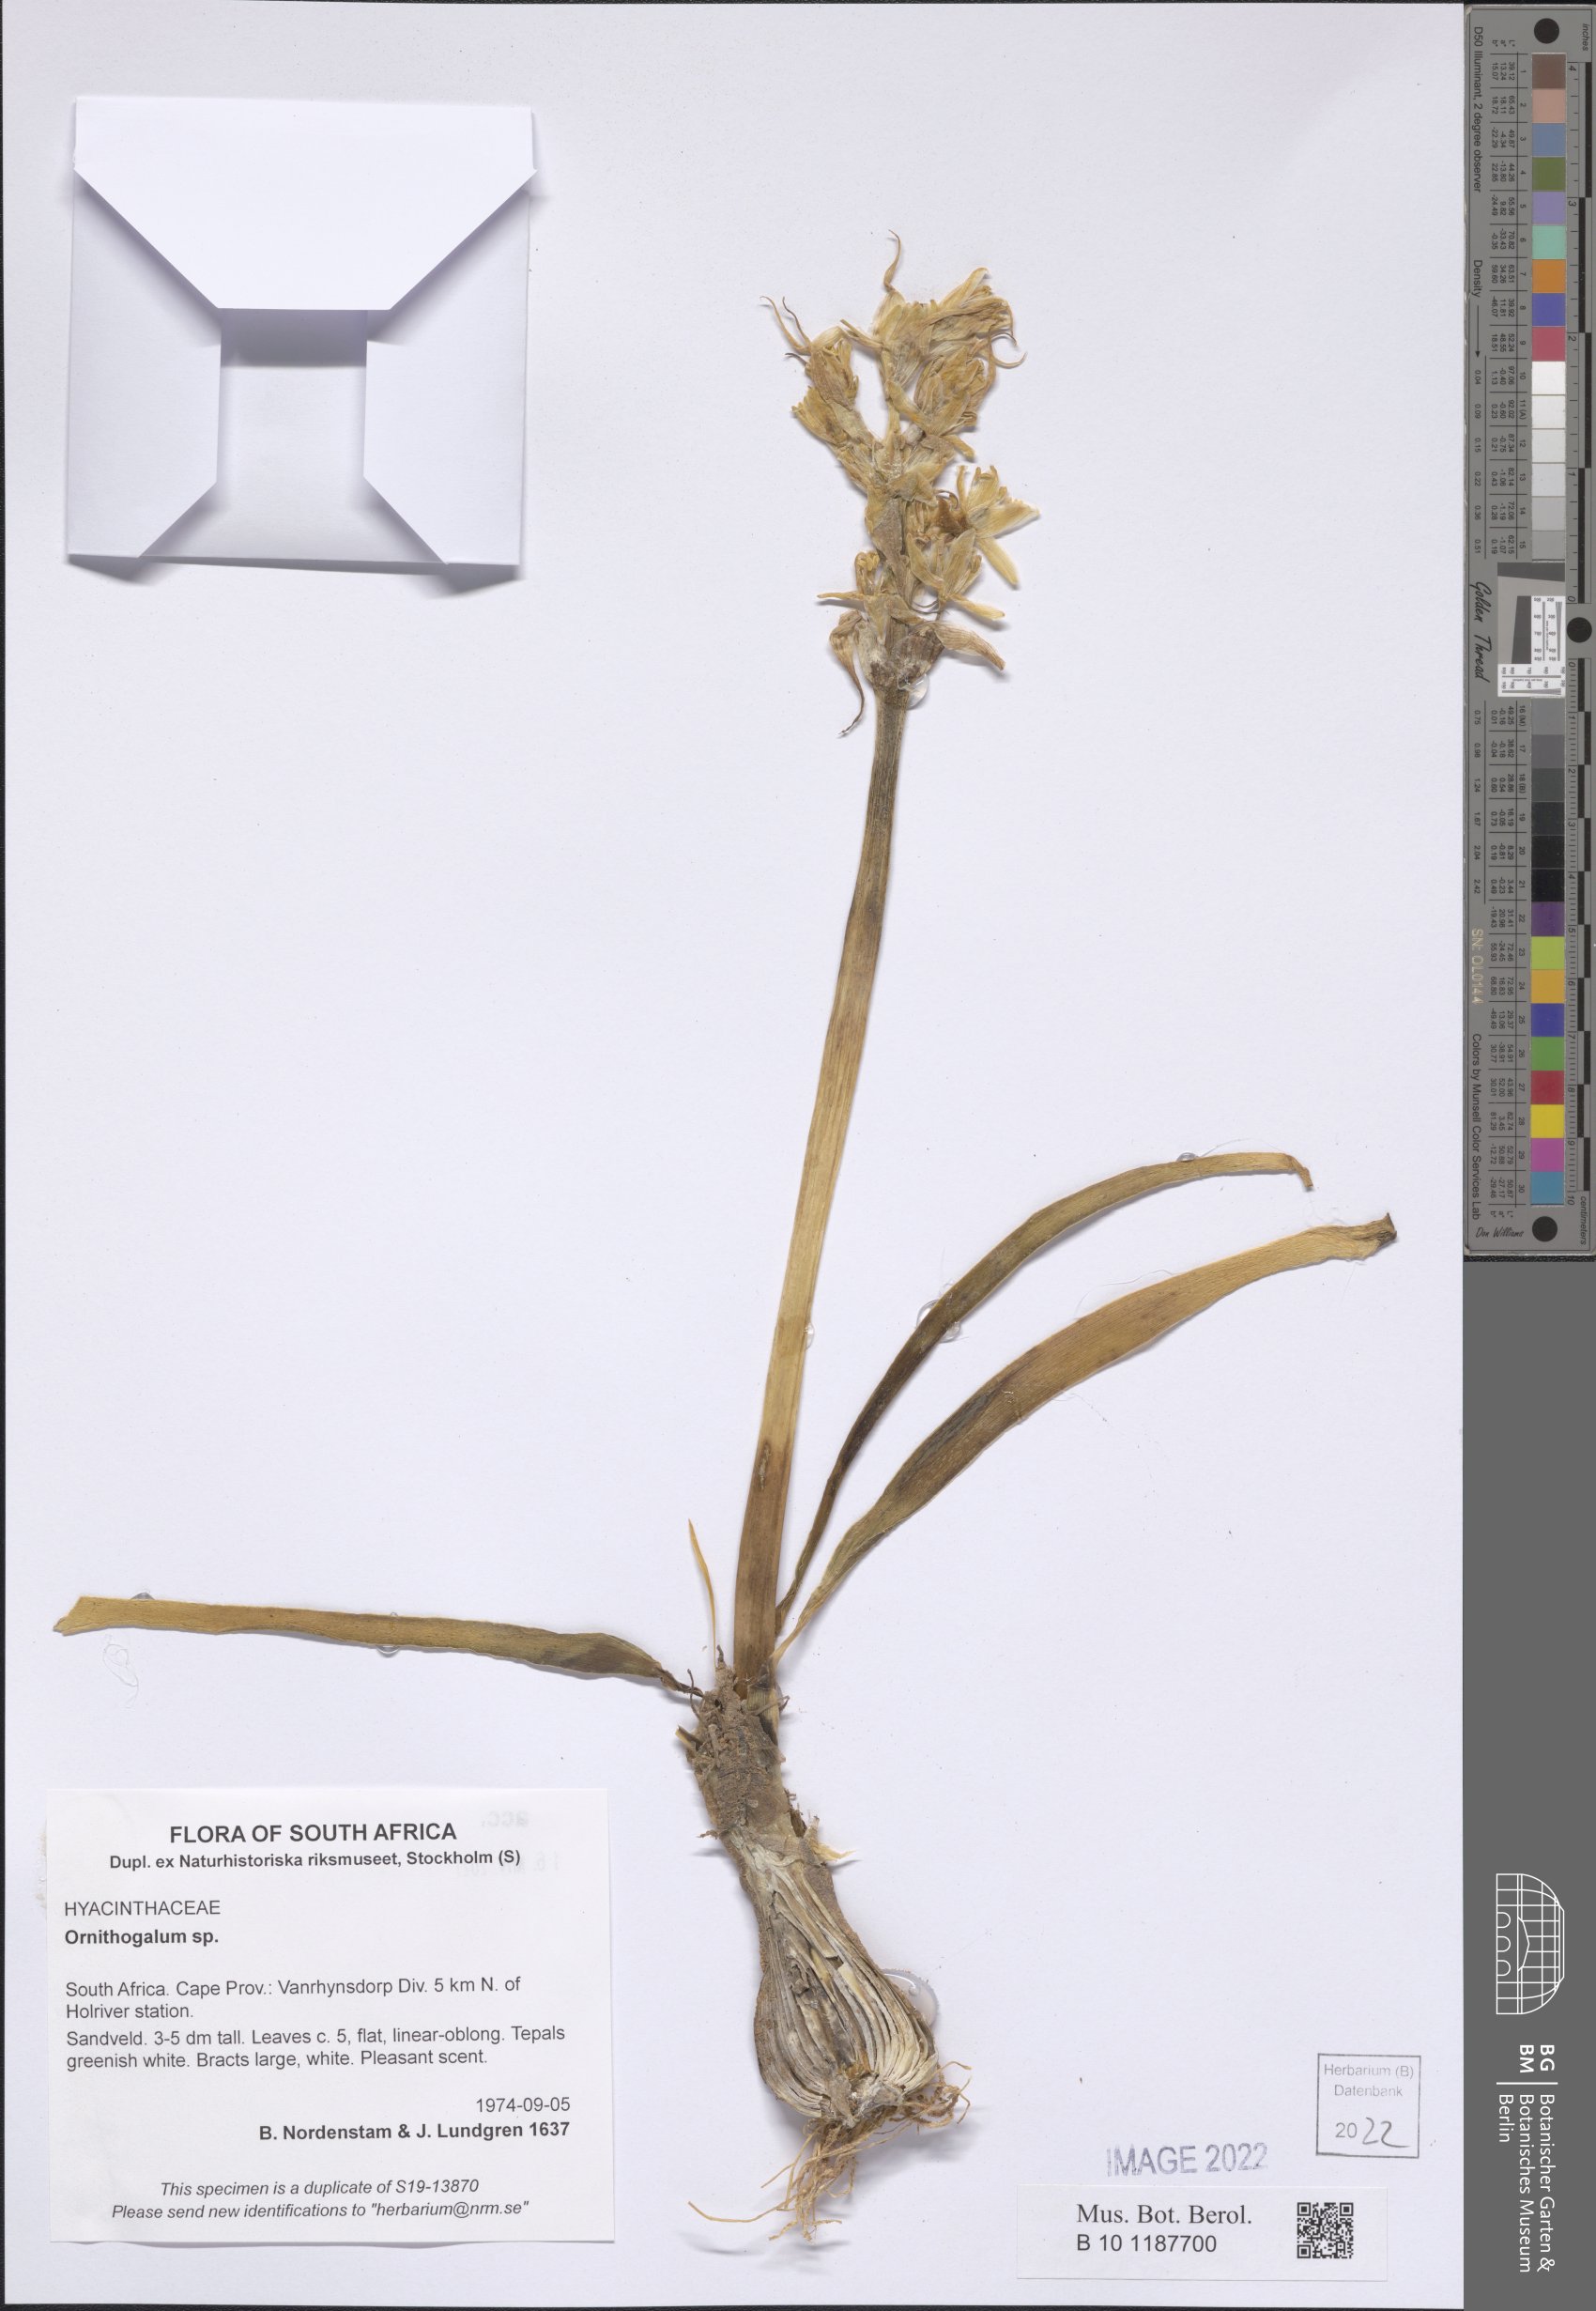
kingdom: Plantae
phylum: Tracheophyta
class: Liliopsida
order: Asparagales
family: Asparagaceae
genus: Ornithogalum
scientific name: Ornithogalum
